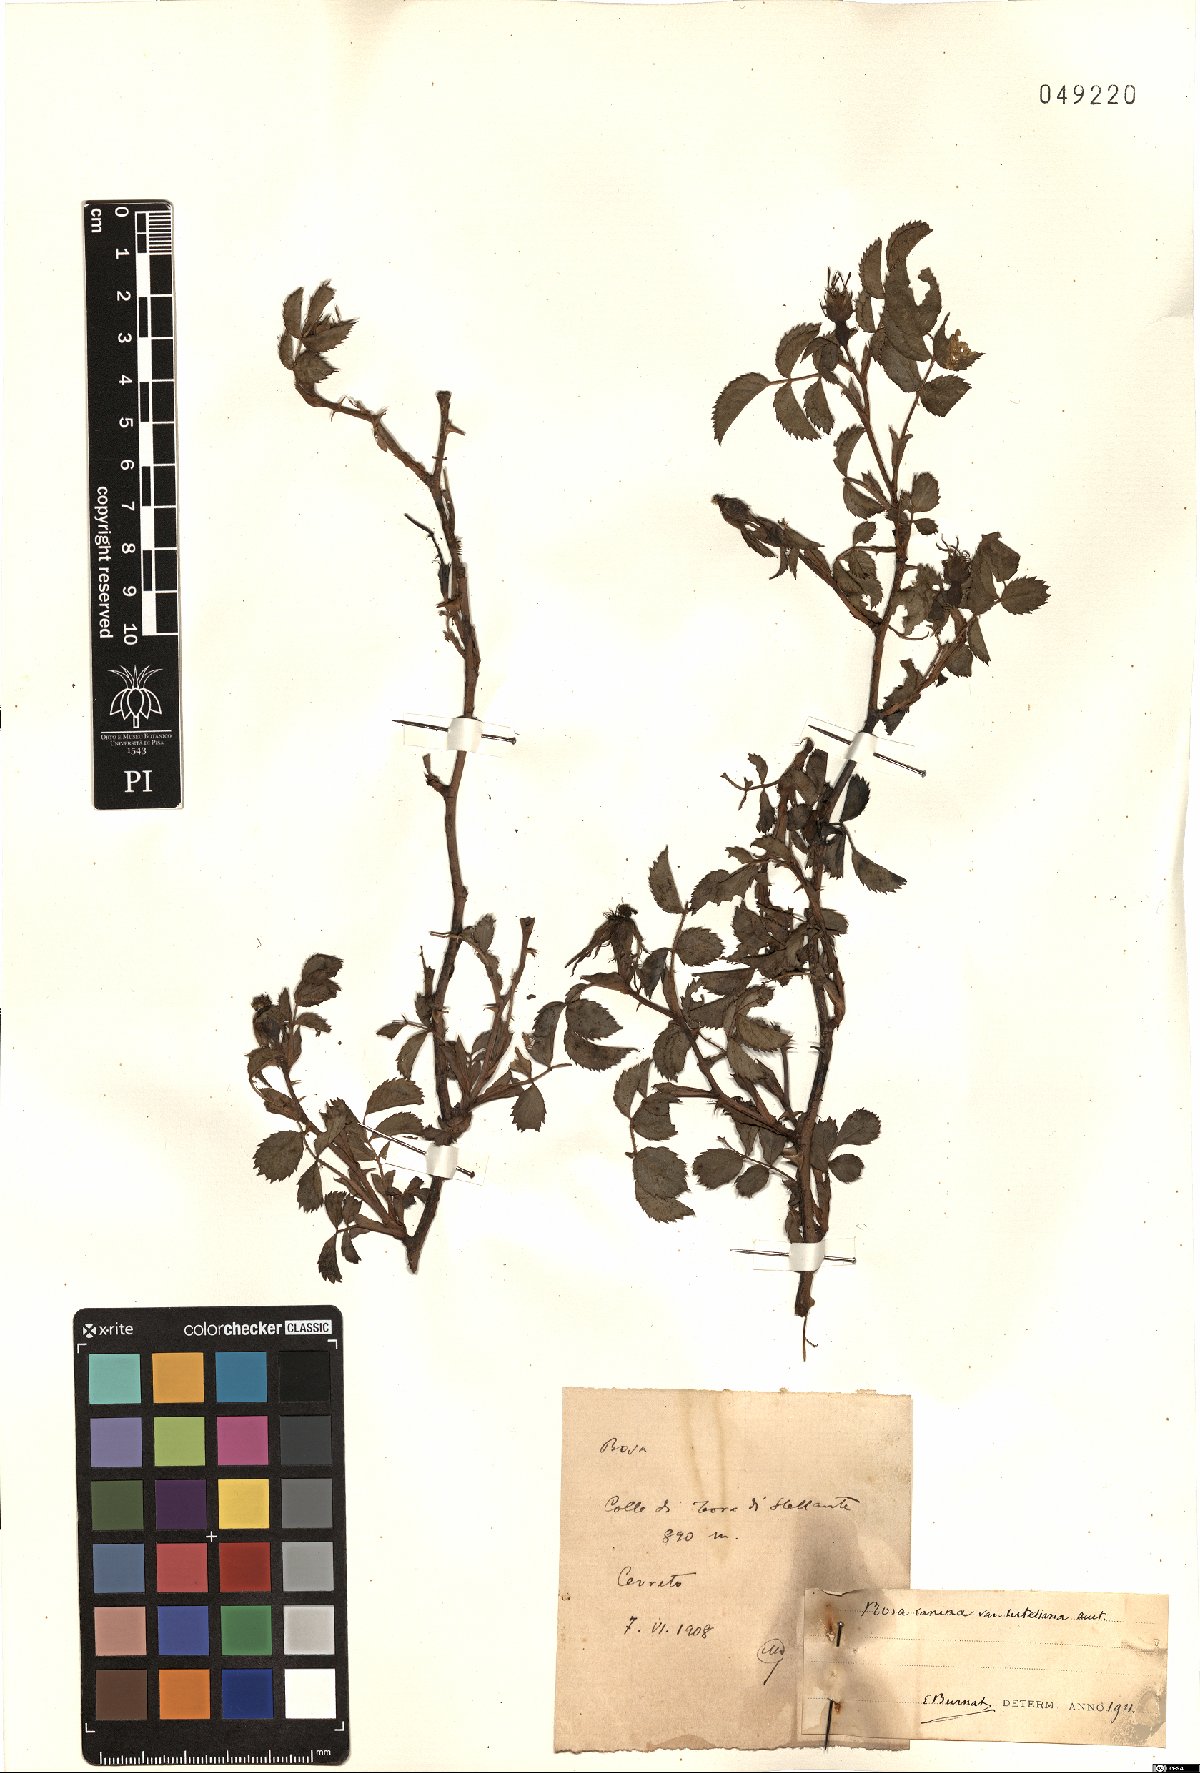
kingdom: Plantae
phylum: Tracheophyta
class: Magnoliopsida
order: Rosales
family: Rosaceae
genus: Rosa
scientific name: Rosa canina
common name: Dog rose
